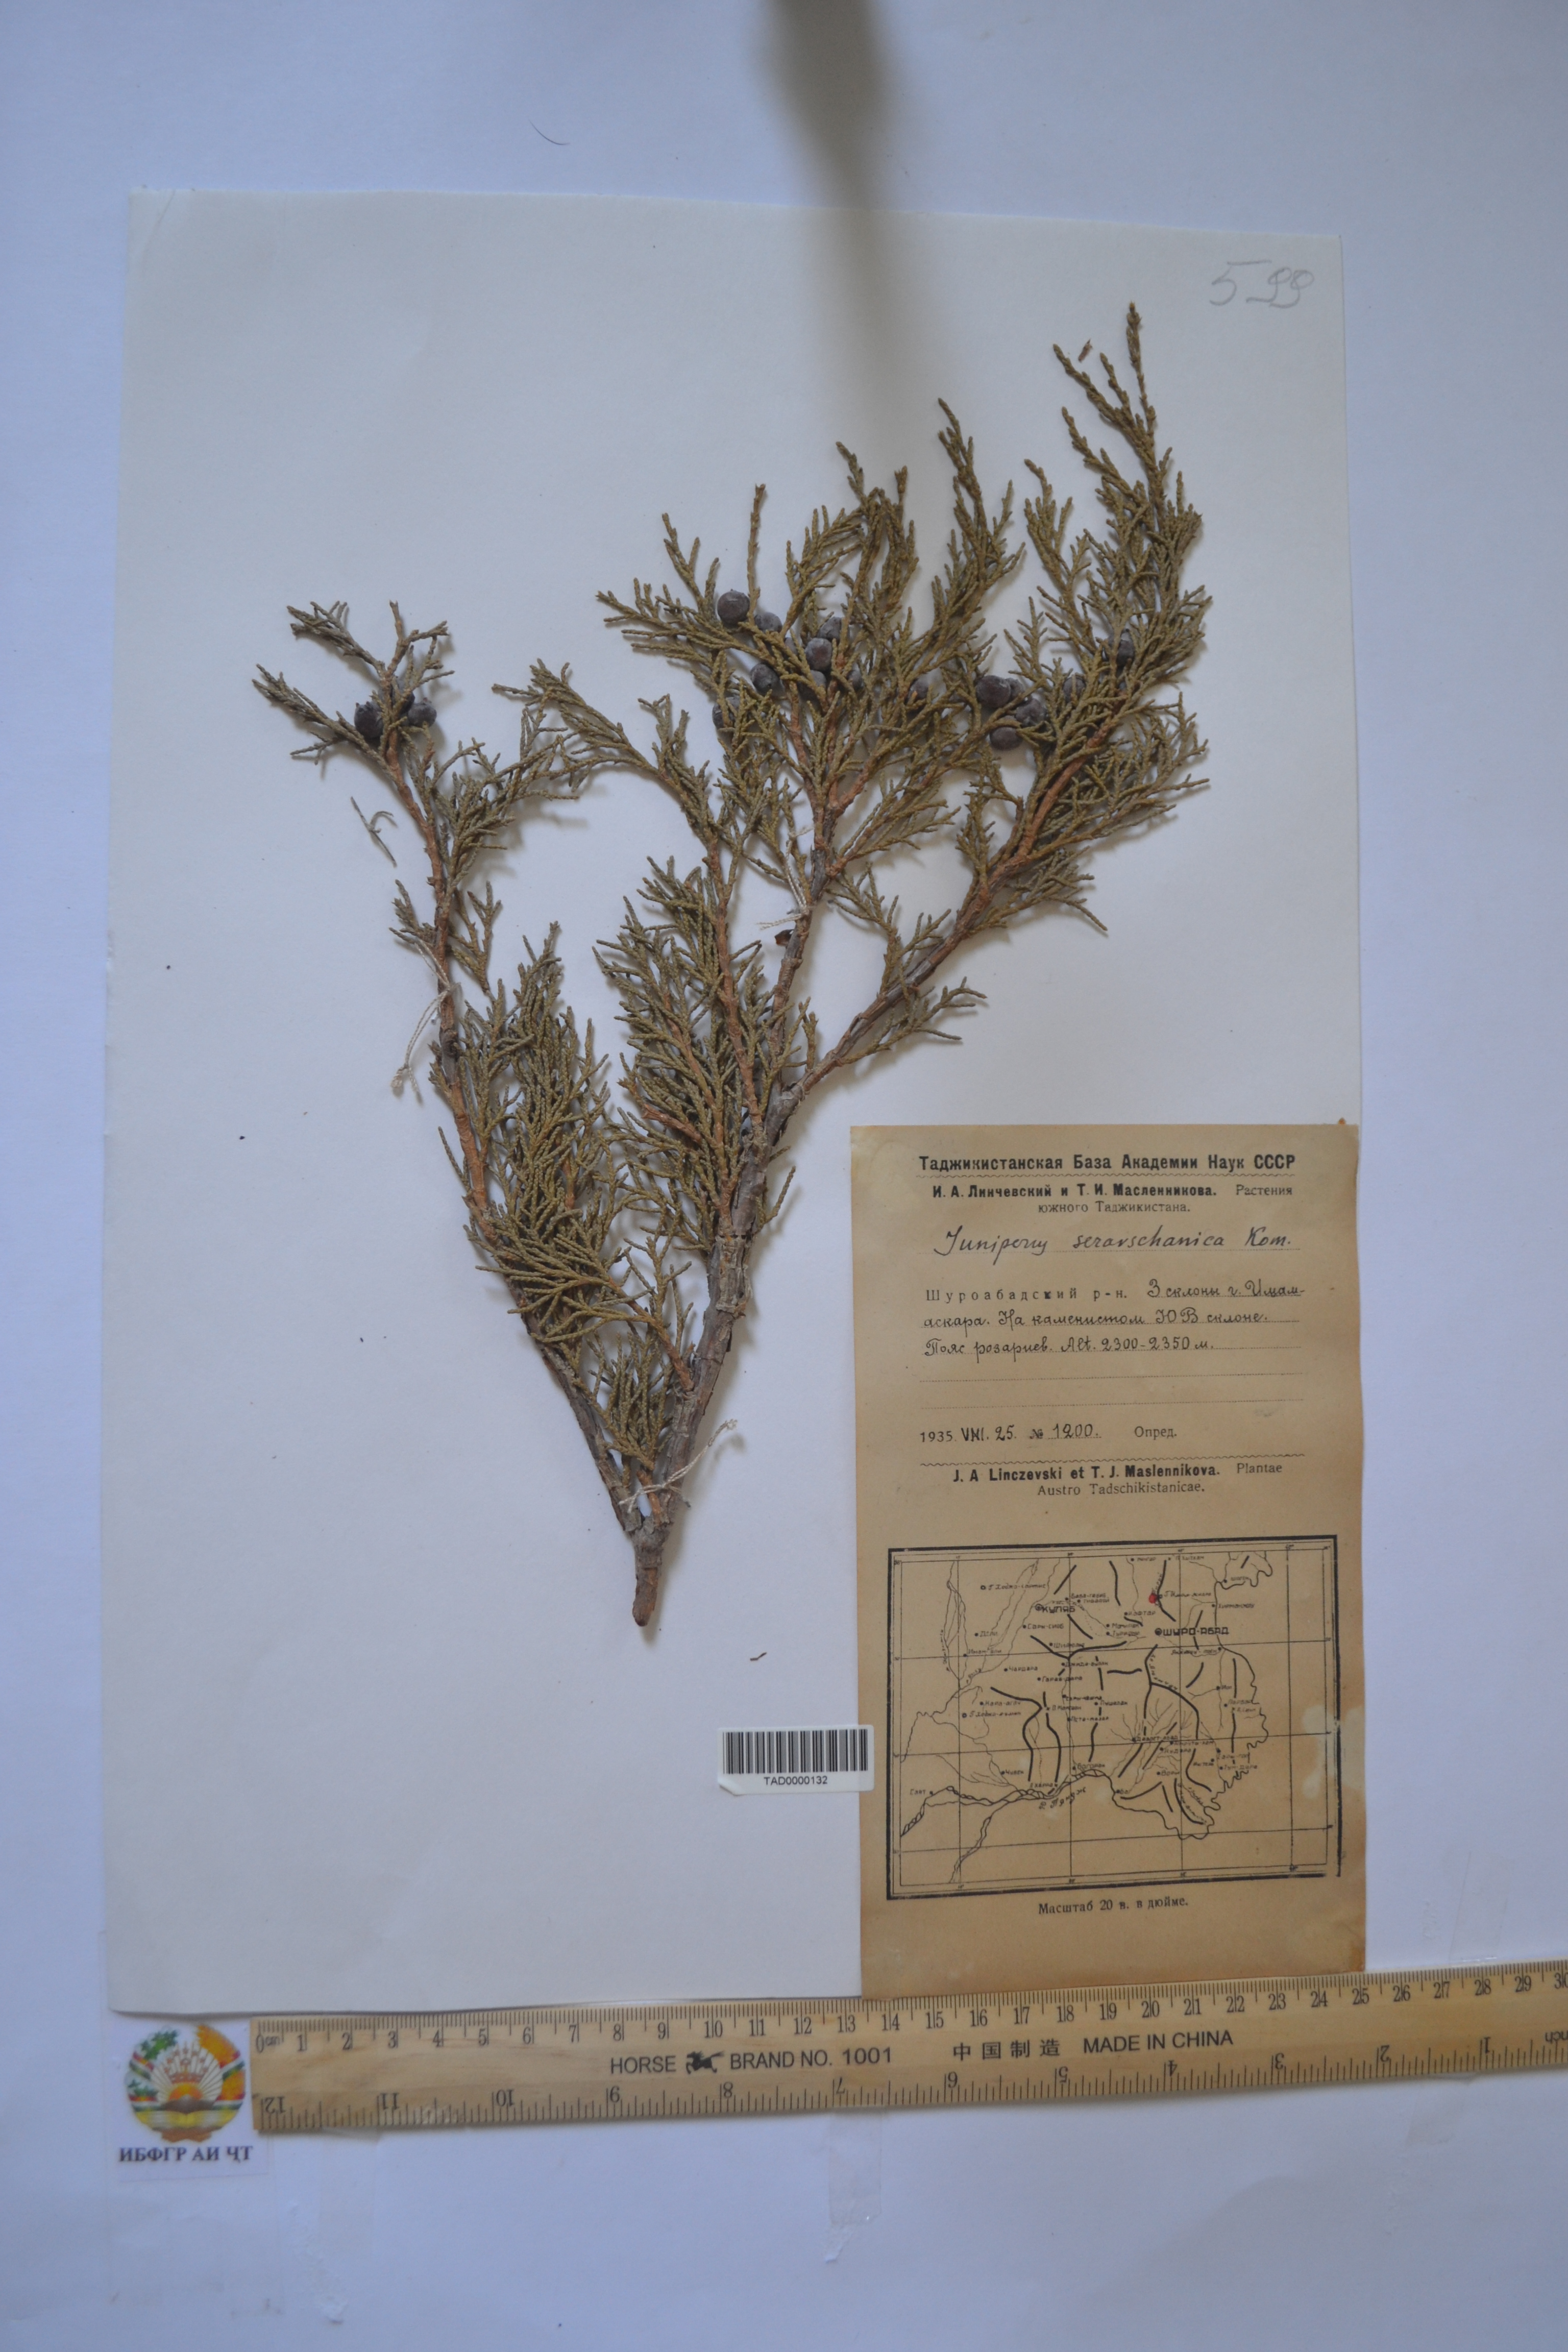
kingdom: Plantae
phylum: Tracheophyta
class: Pinopsida
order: Pinales
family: Cupressaceae
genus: Juniperus
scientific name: Juniperus excelsa
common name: Crimean juniper
